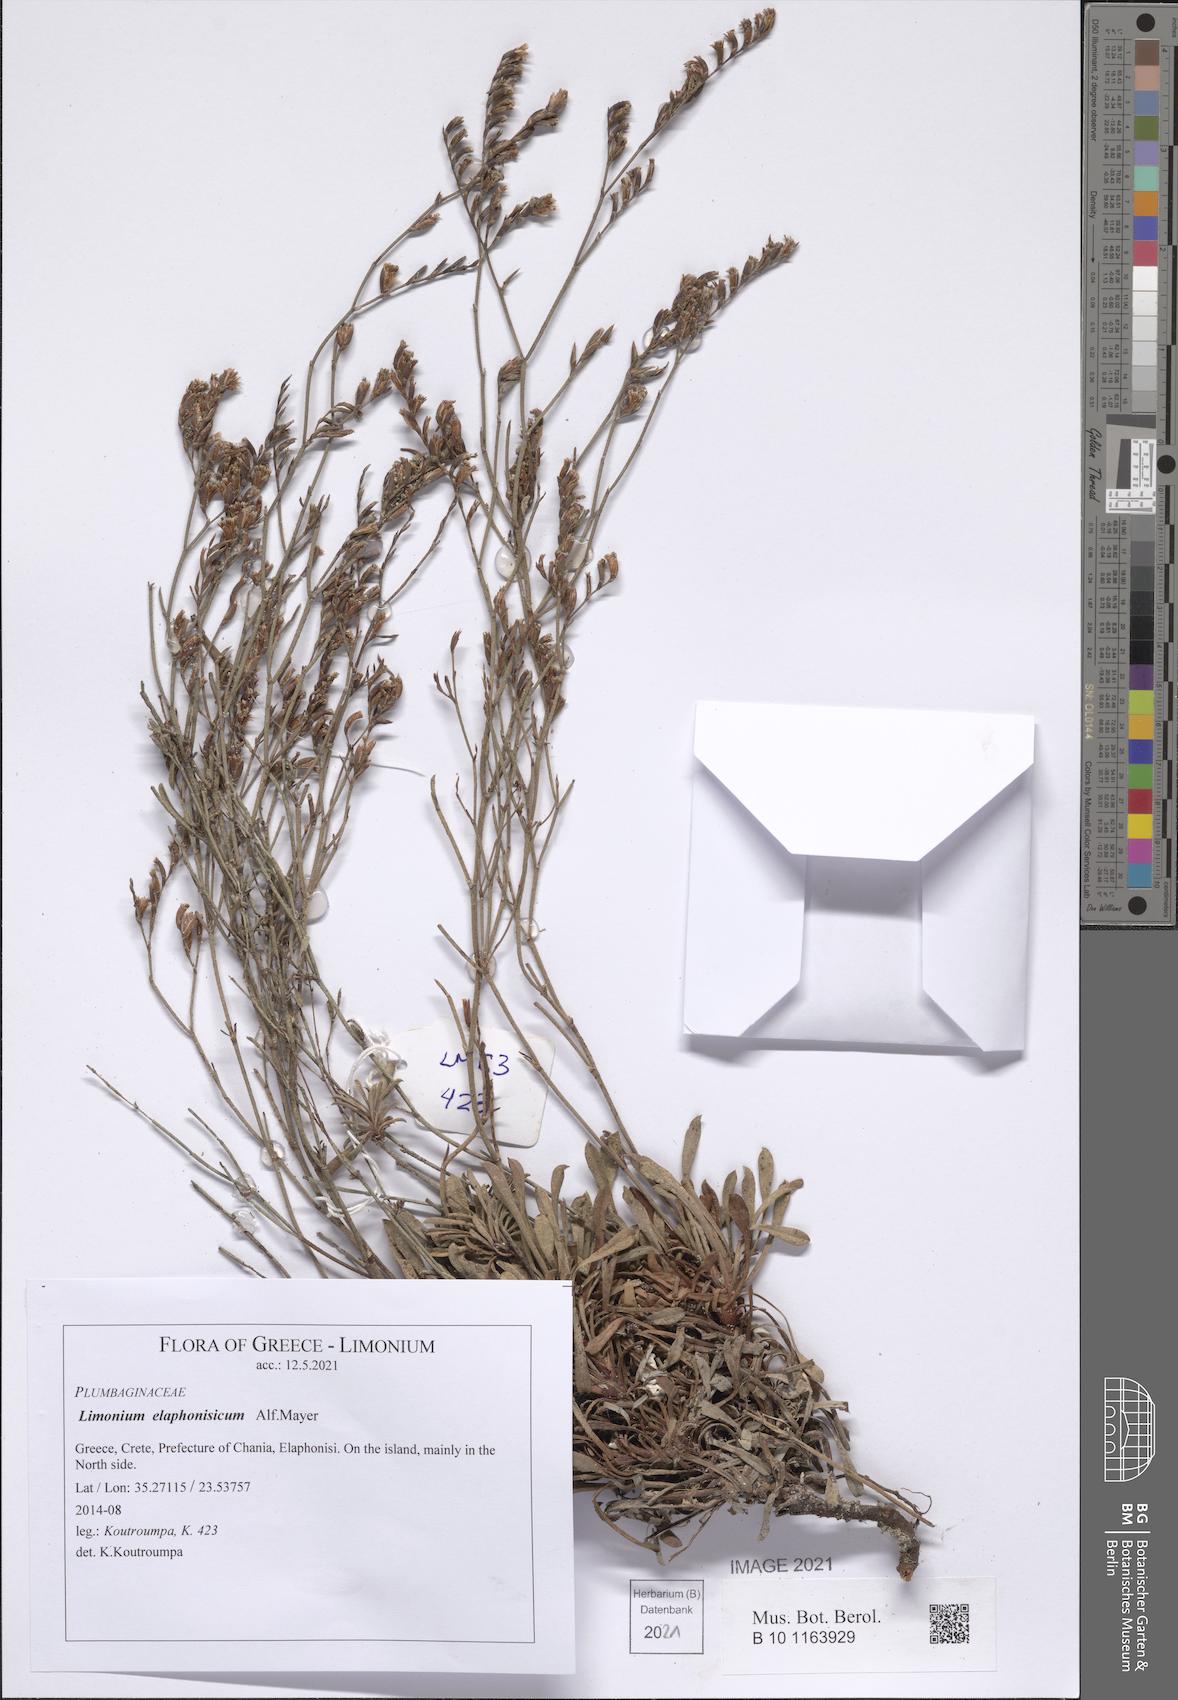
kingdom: Plantae
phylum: Tracheophyta
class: Magnoliopsida
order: Caryophyllales
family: Plumbaginaceae
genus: Limonium
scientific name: Limonium elaphonisicum
